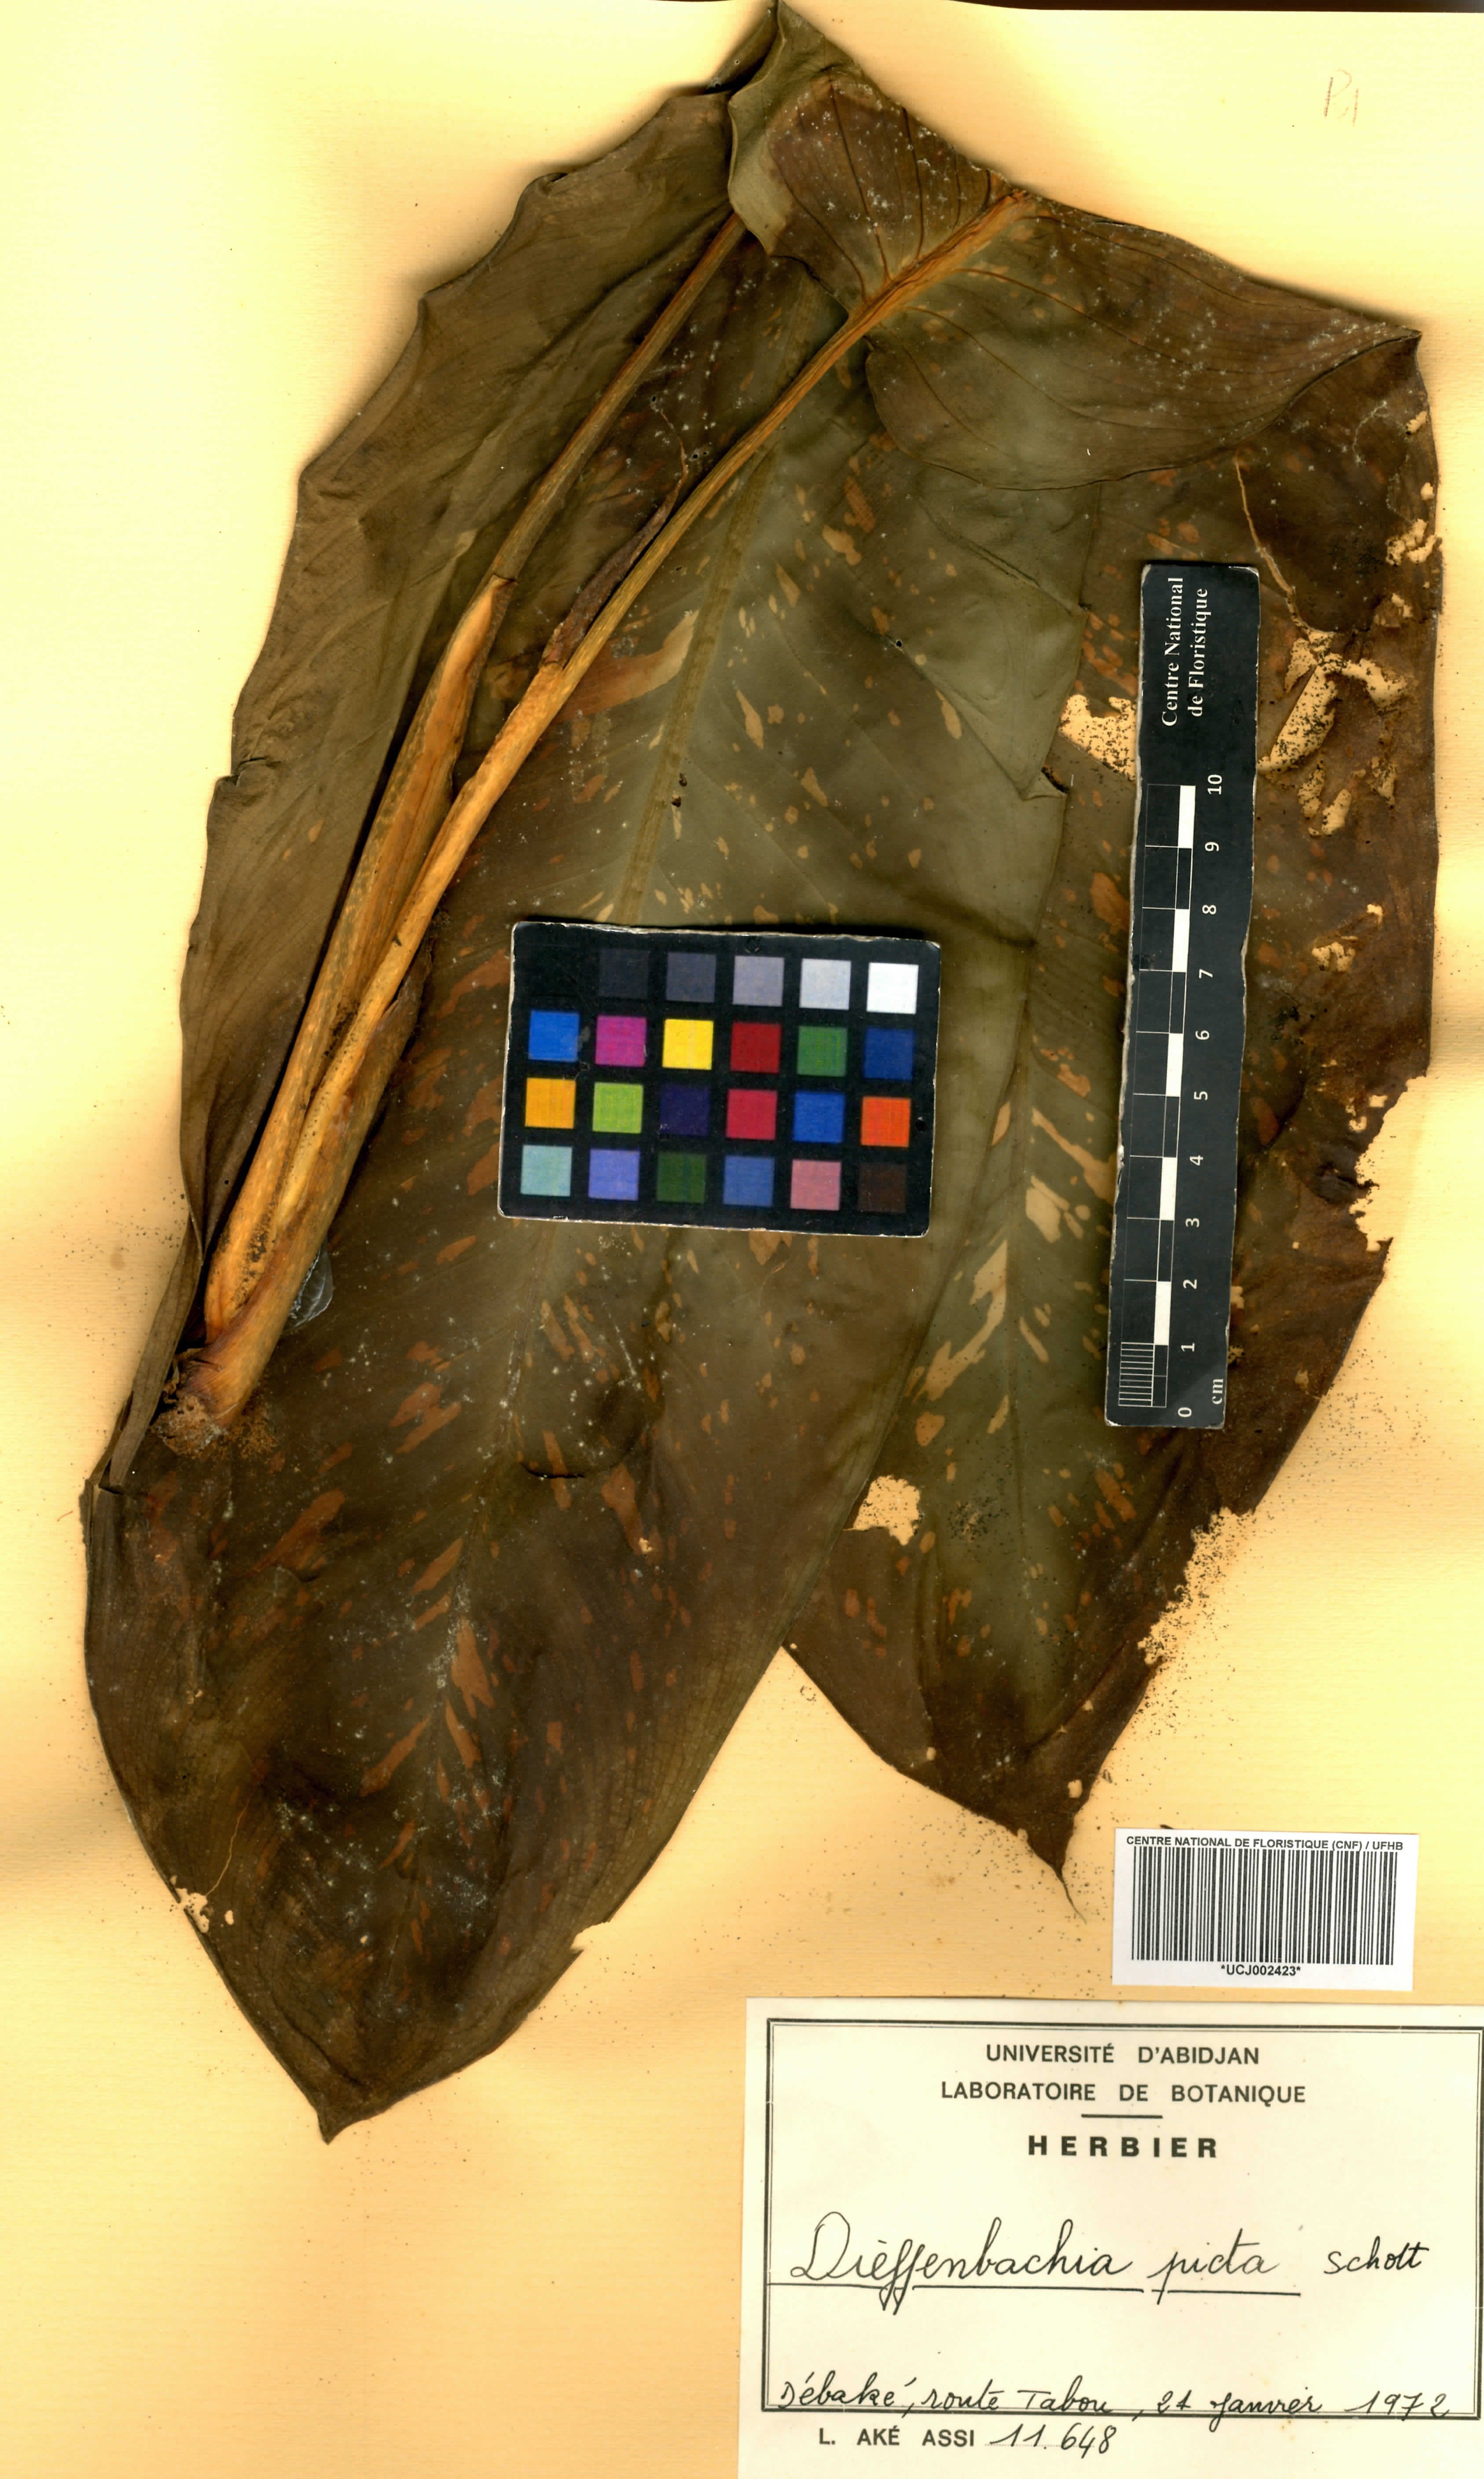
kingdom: Plantae
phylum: Tracheophyta
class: Liliopsida
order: Alismatales
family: Araceae
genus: Dieffenbachia
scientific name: Dieffenbachia seguine
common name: Dumbcane
